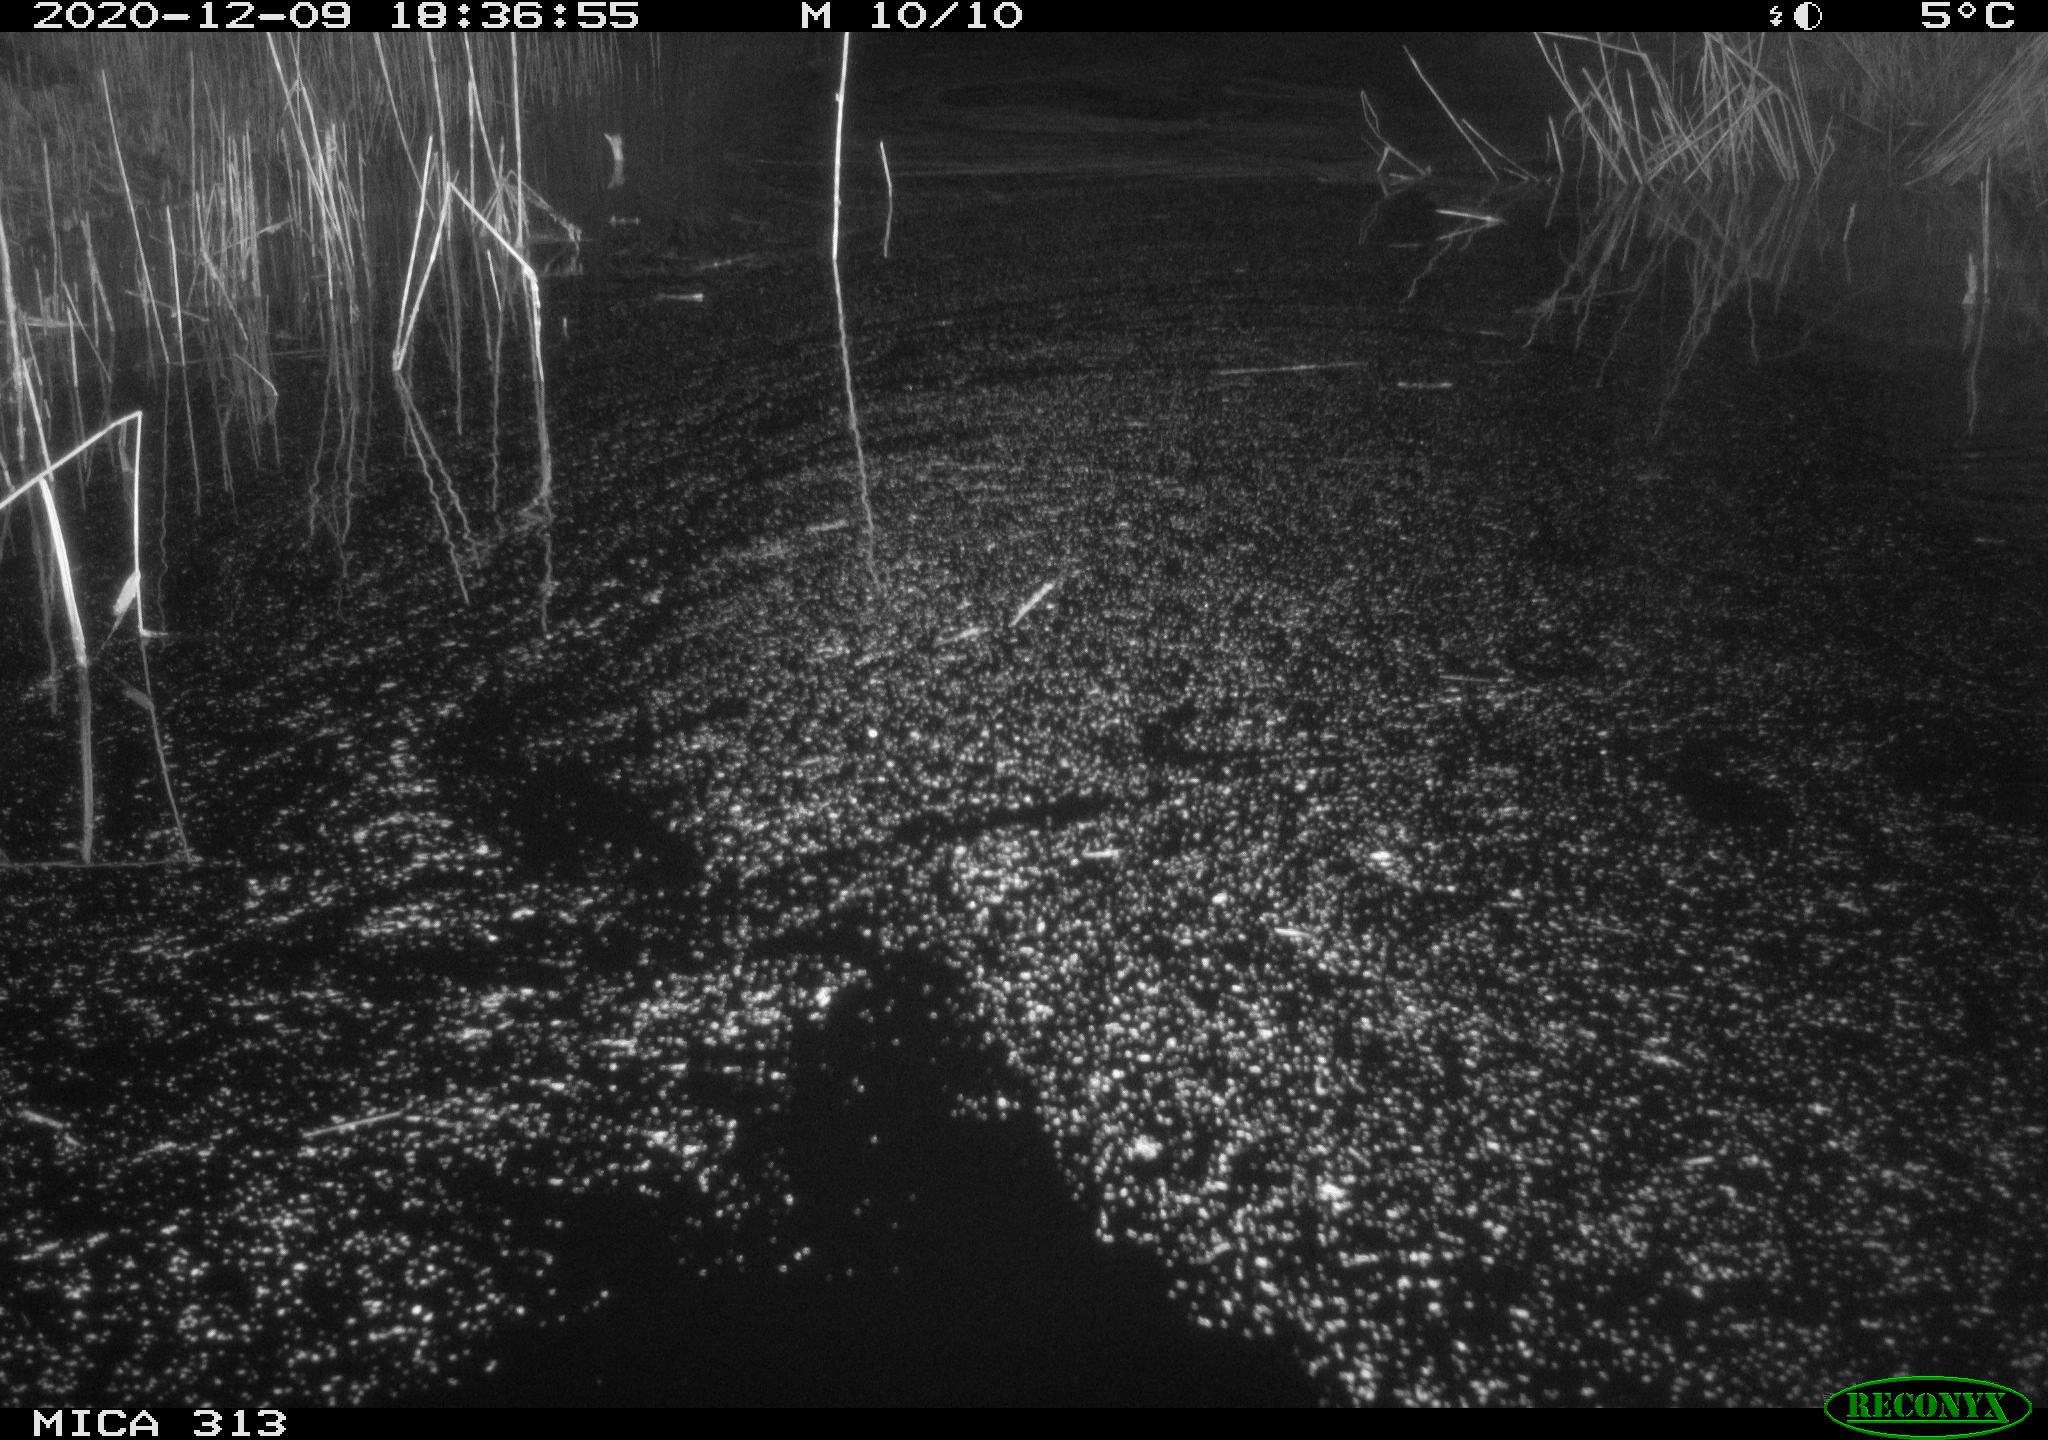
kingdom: Animalia
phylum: Chordata
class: Mammalia
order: Rodentia
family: Muridae
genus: Rattus
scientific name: Rattus norvegicus
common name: Brown rat
